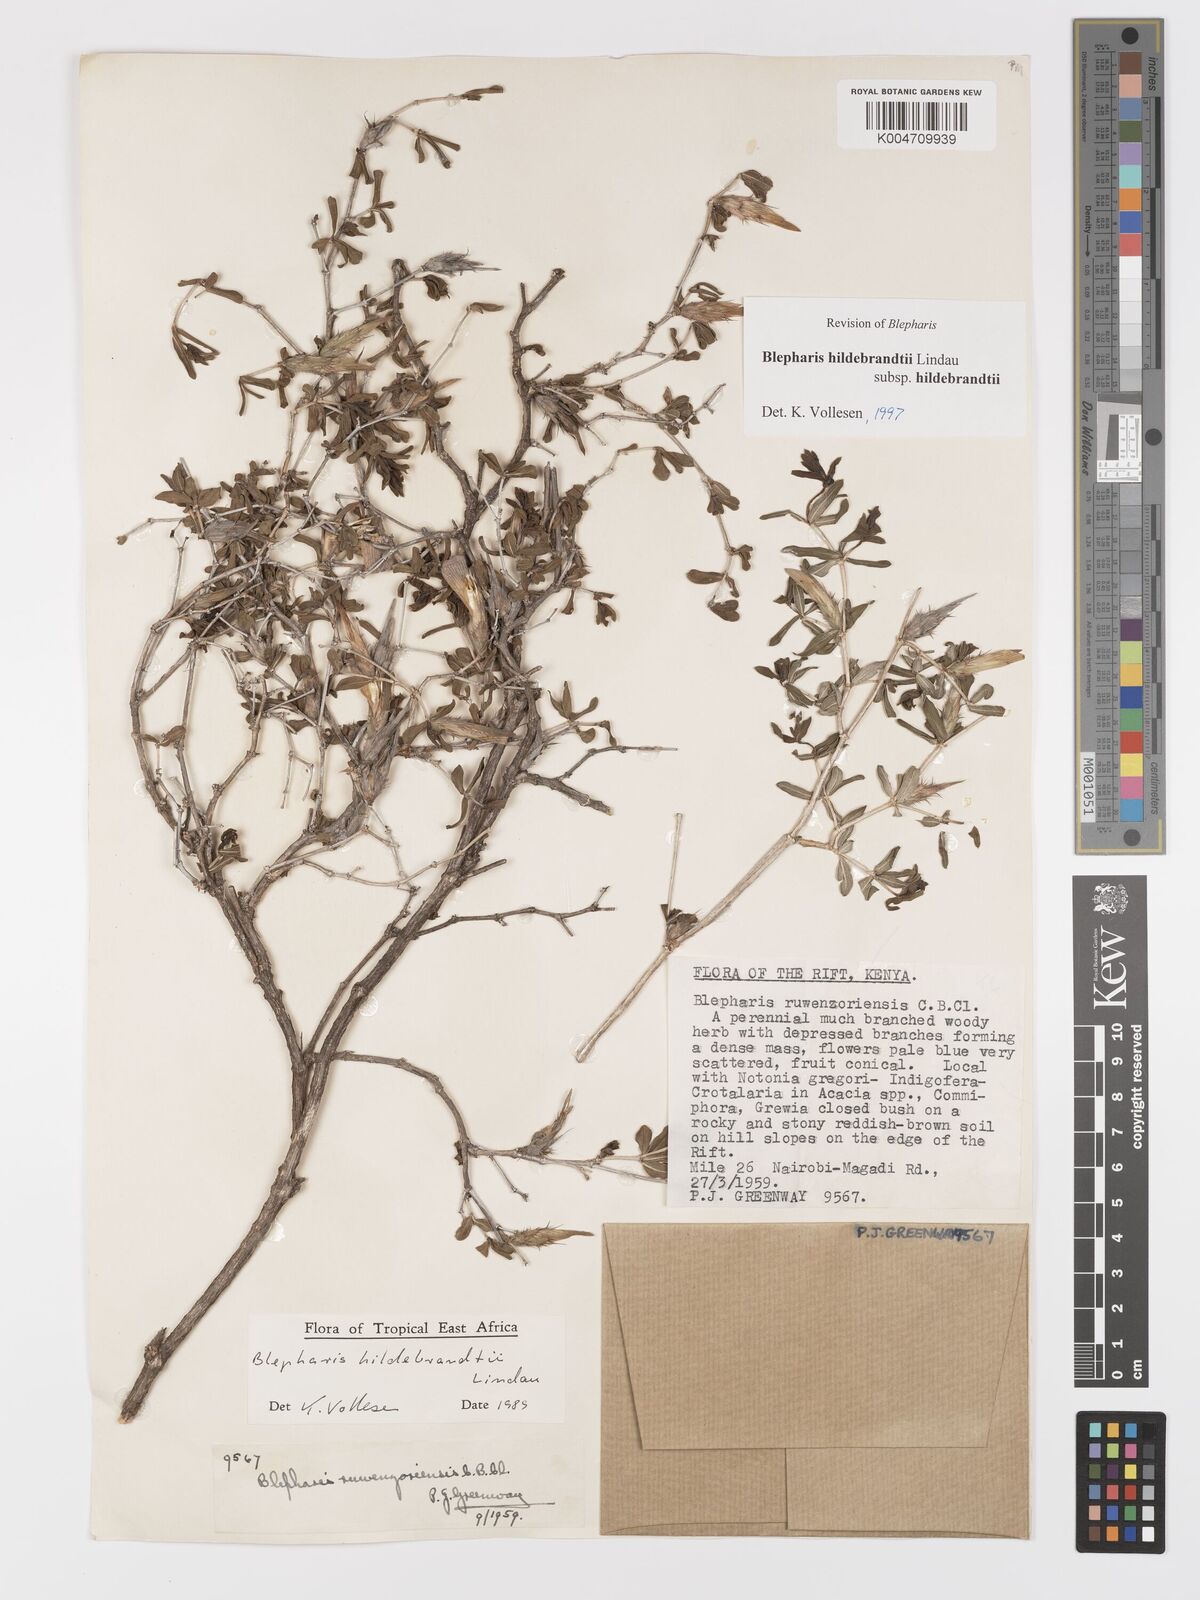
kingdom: Plantae
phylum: Tracheophyta
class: Magnoliopsida
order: Lamiales
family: Acanthaceae
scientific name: Acanthaceae
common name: Acanthaceae
